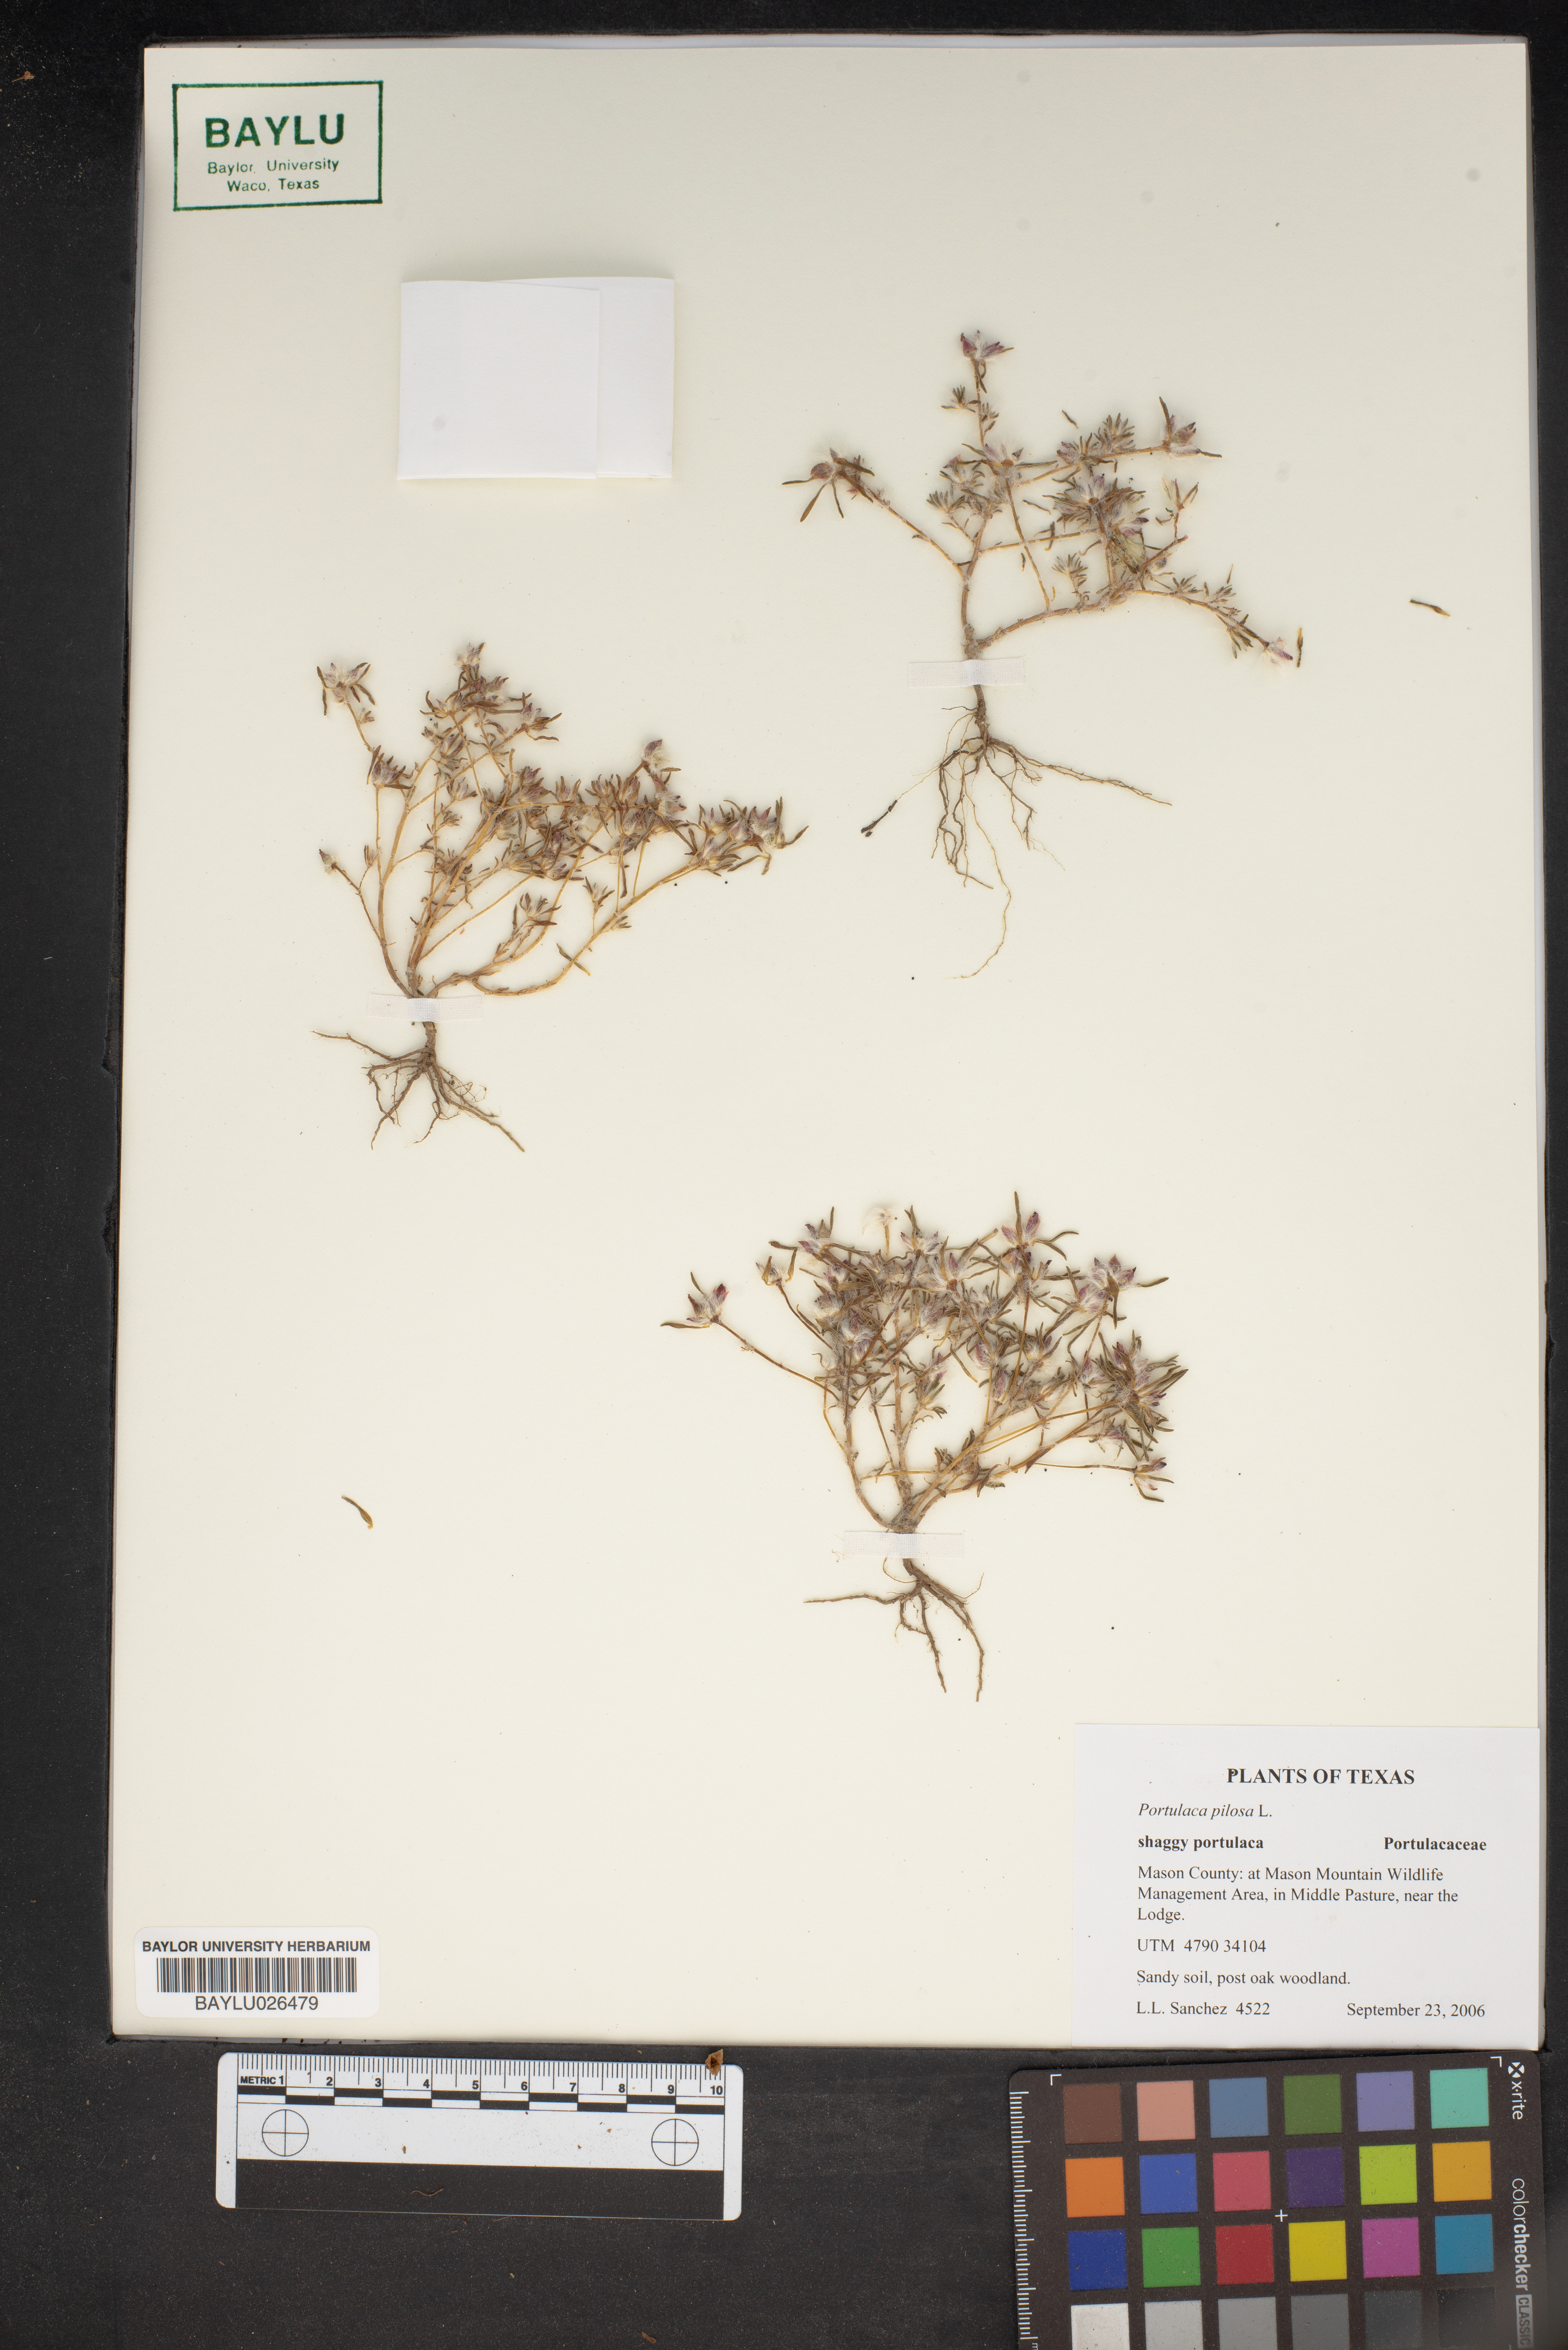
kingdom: Plantae
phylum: Tracheophyta
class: Magnoliopsida
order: Caryophyllales
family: Portulacaceae
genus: Portulaca
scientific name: Portulaca pilosa
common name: Kiss me quick
